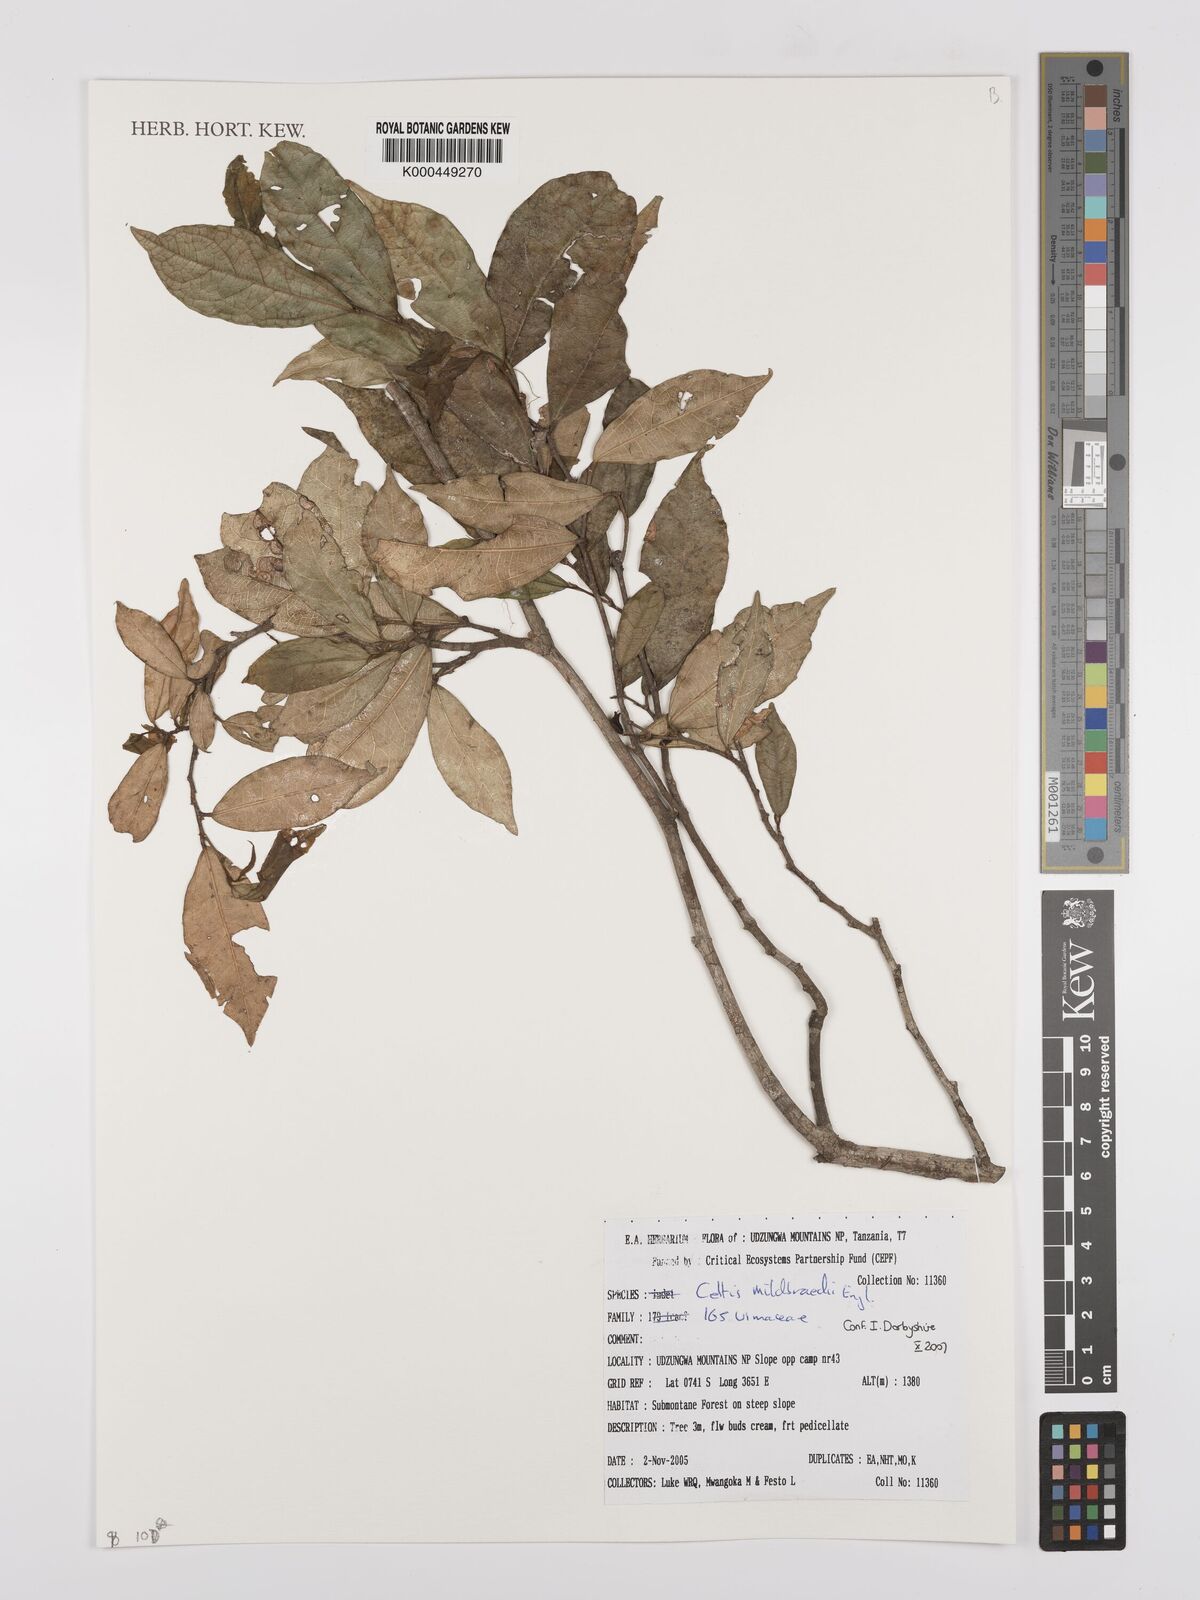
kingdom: Plantae
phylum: Tracheophyta
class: Magnoliopsida
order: Rosales
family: Cannabaceae
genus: Celtis
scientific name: Celtis mildbraedii
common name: Red-fruited stinkwood
